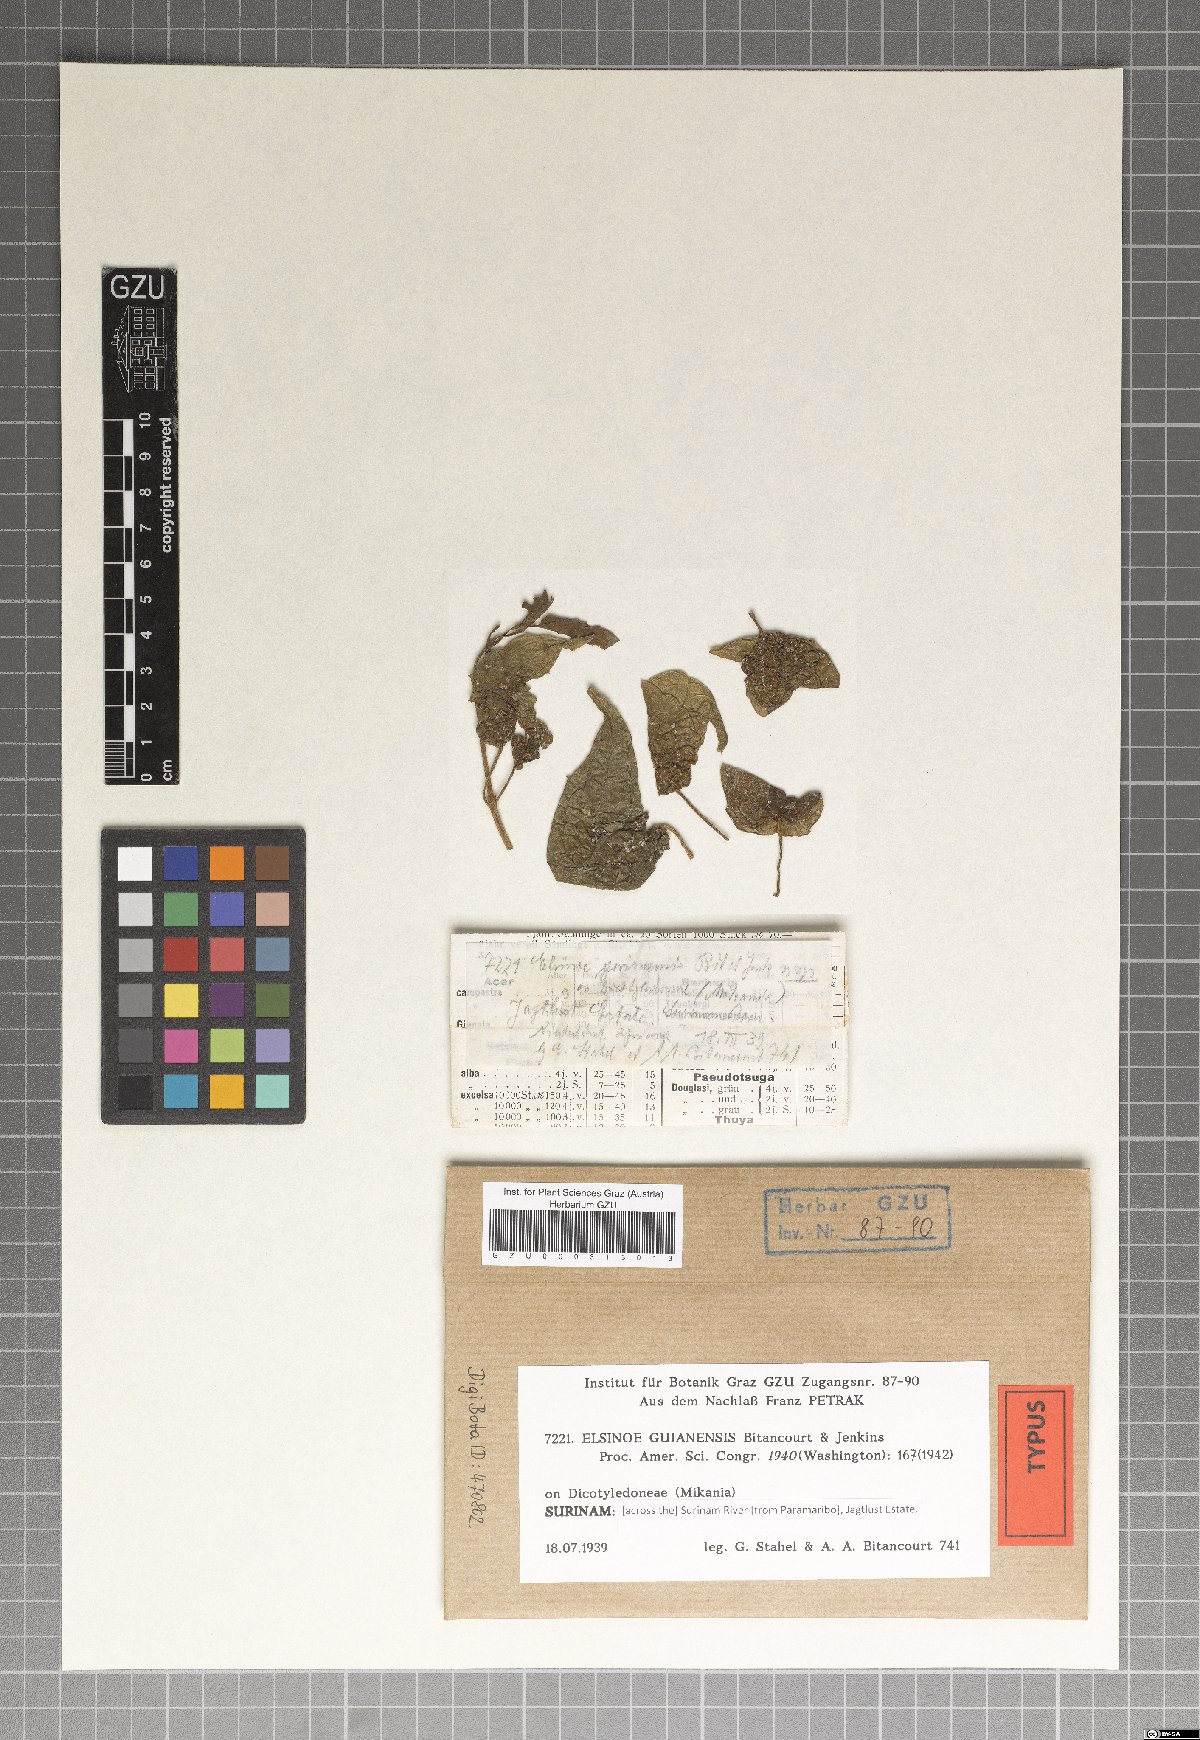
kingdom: Fungi
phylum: Ascomycota
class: Dothideomycetes
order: Myriangiales
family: Elsinoaceae
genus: Elsinoe
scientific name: Elsinoe guianensis
